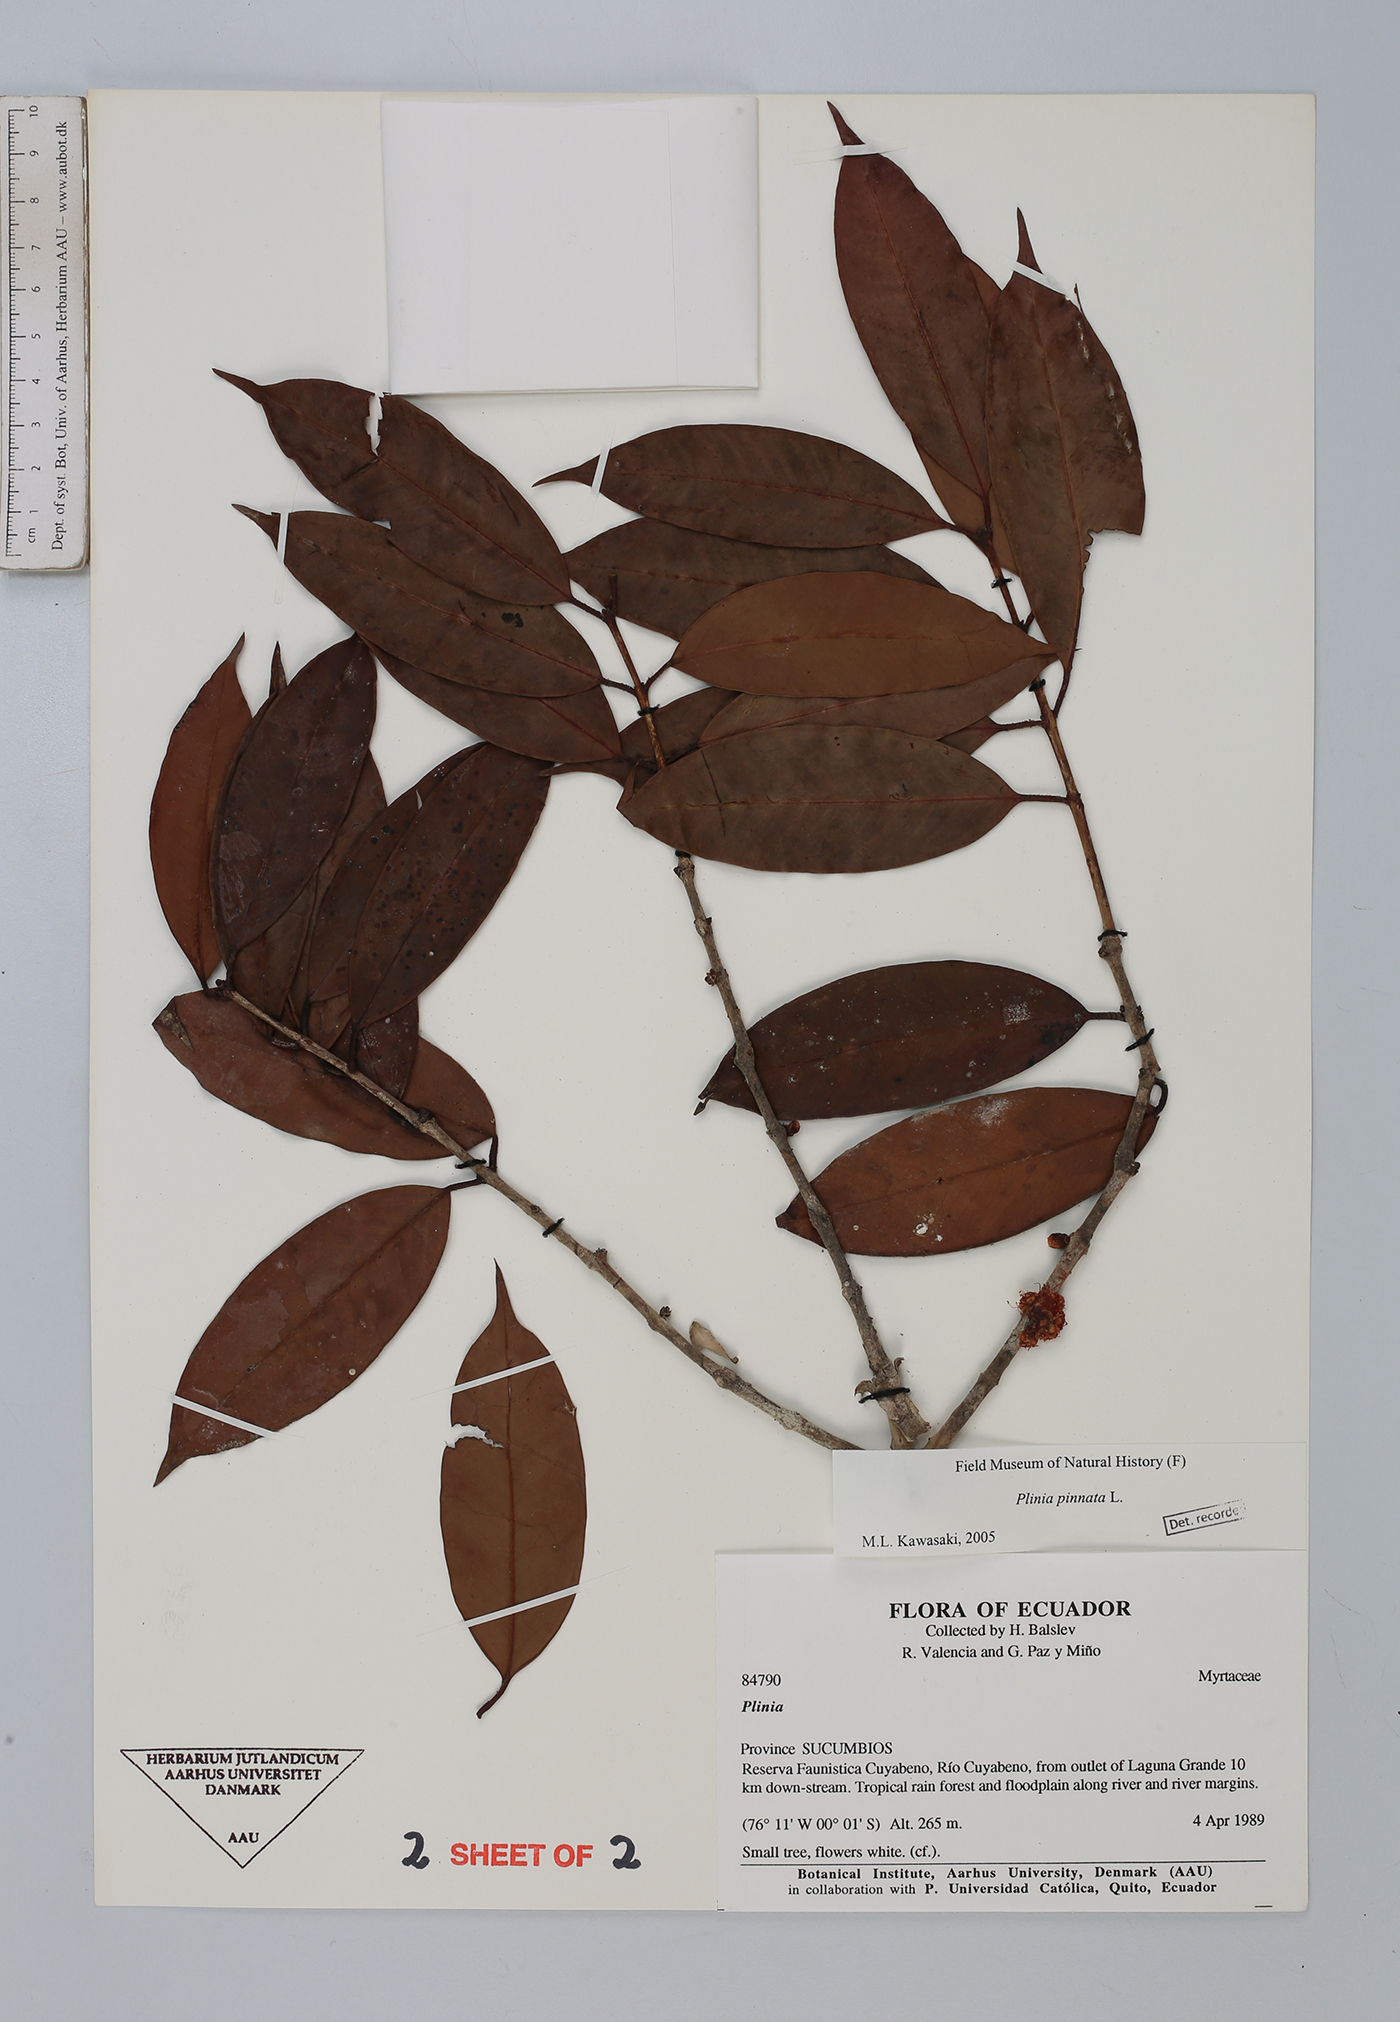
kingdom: Plantae
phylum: Tracheophyta
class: Magnoliopsida
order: Myrtales
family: Myrtaceae
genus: Plinia
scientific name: Plinia pinnata
